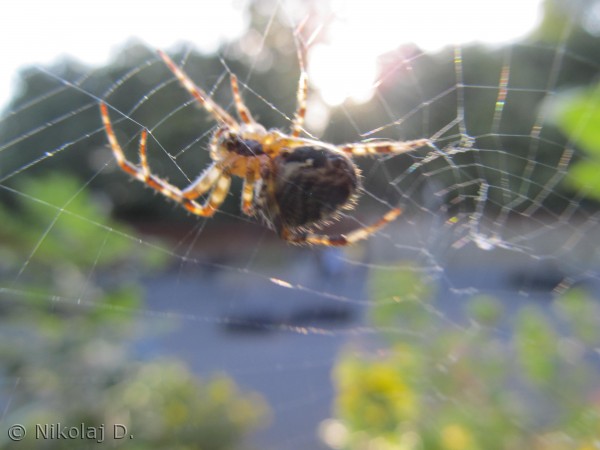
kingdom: Animalia
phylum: Arthropoda
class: Arachnida
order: Araneae
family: Araneidae
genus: Araneus
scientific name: Araneus diadematus
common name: Korsedderkop
